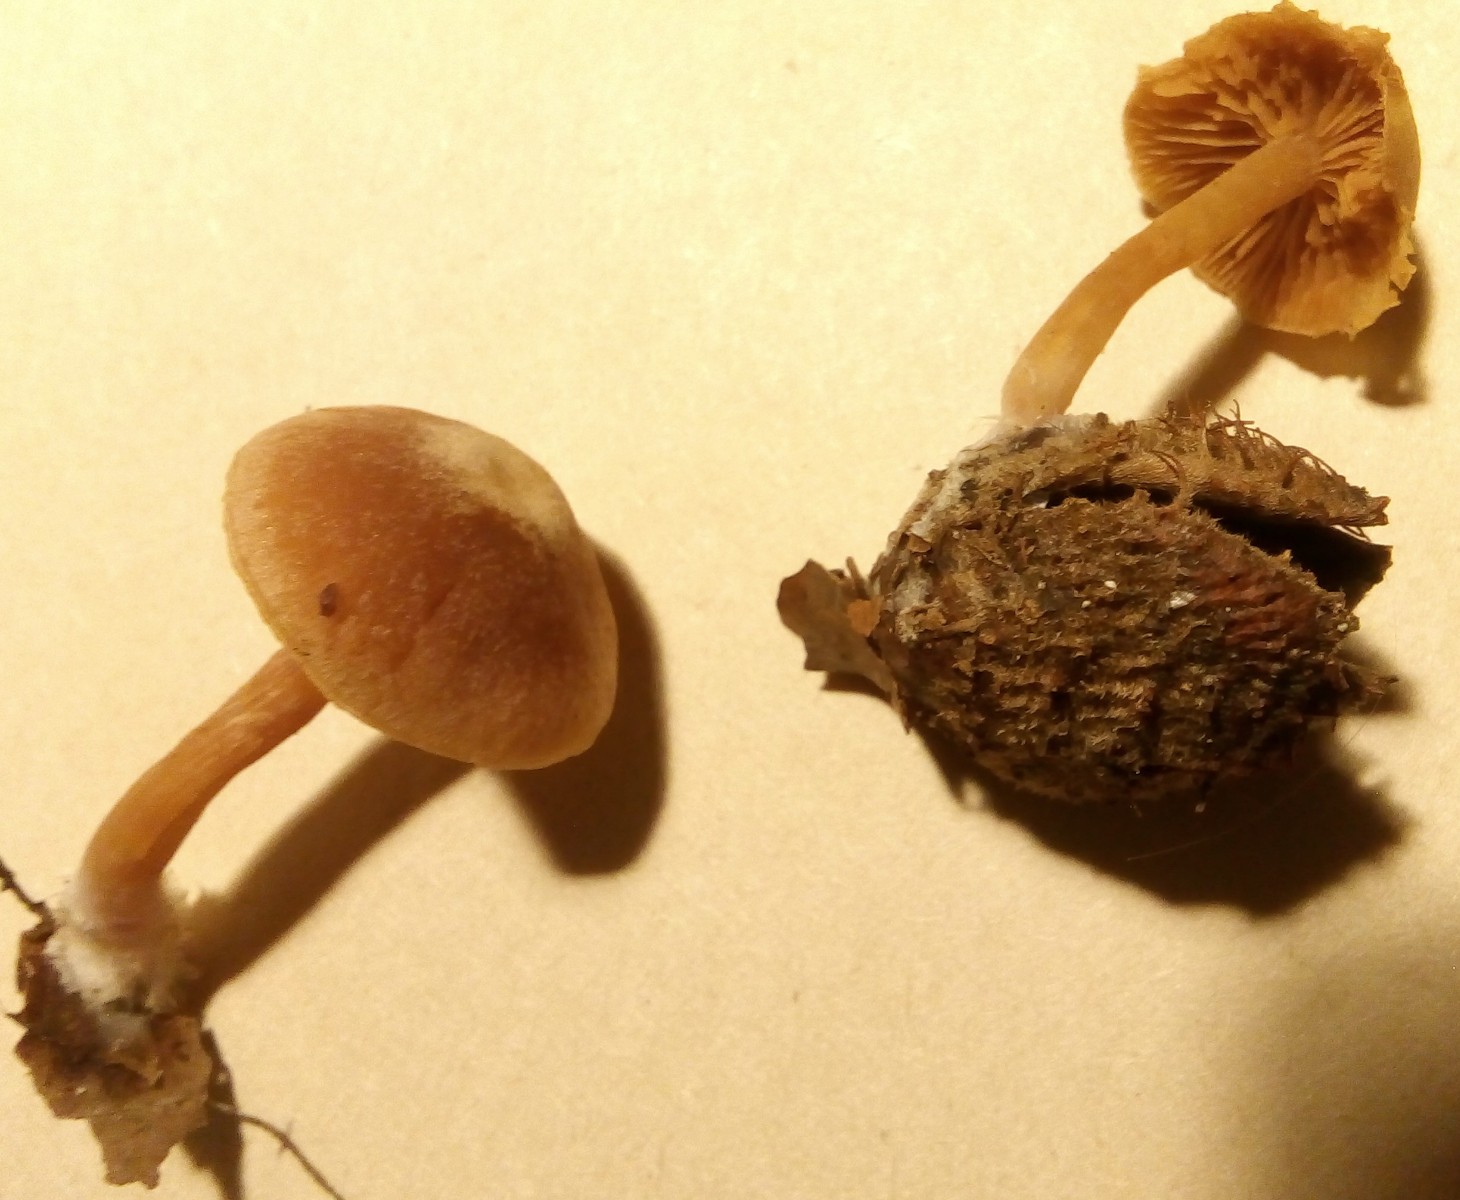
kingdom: Fungi
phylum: Basidiomycota
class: Agaricomycetes
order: Agaricales
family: Tubariaceae
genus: Tubaria
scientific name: Tubaria furfuracea
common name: kliddet fnughat
